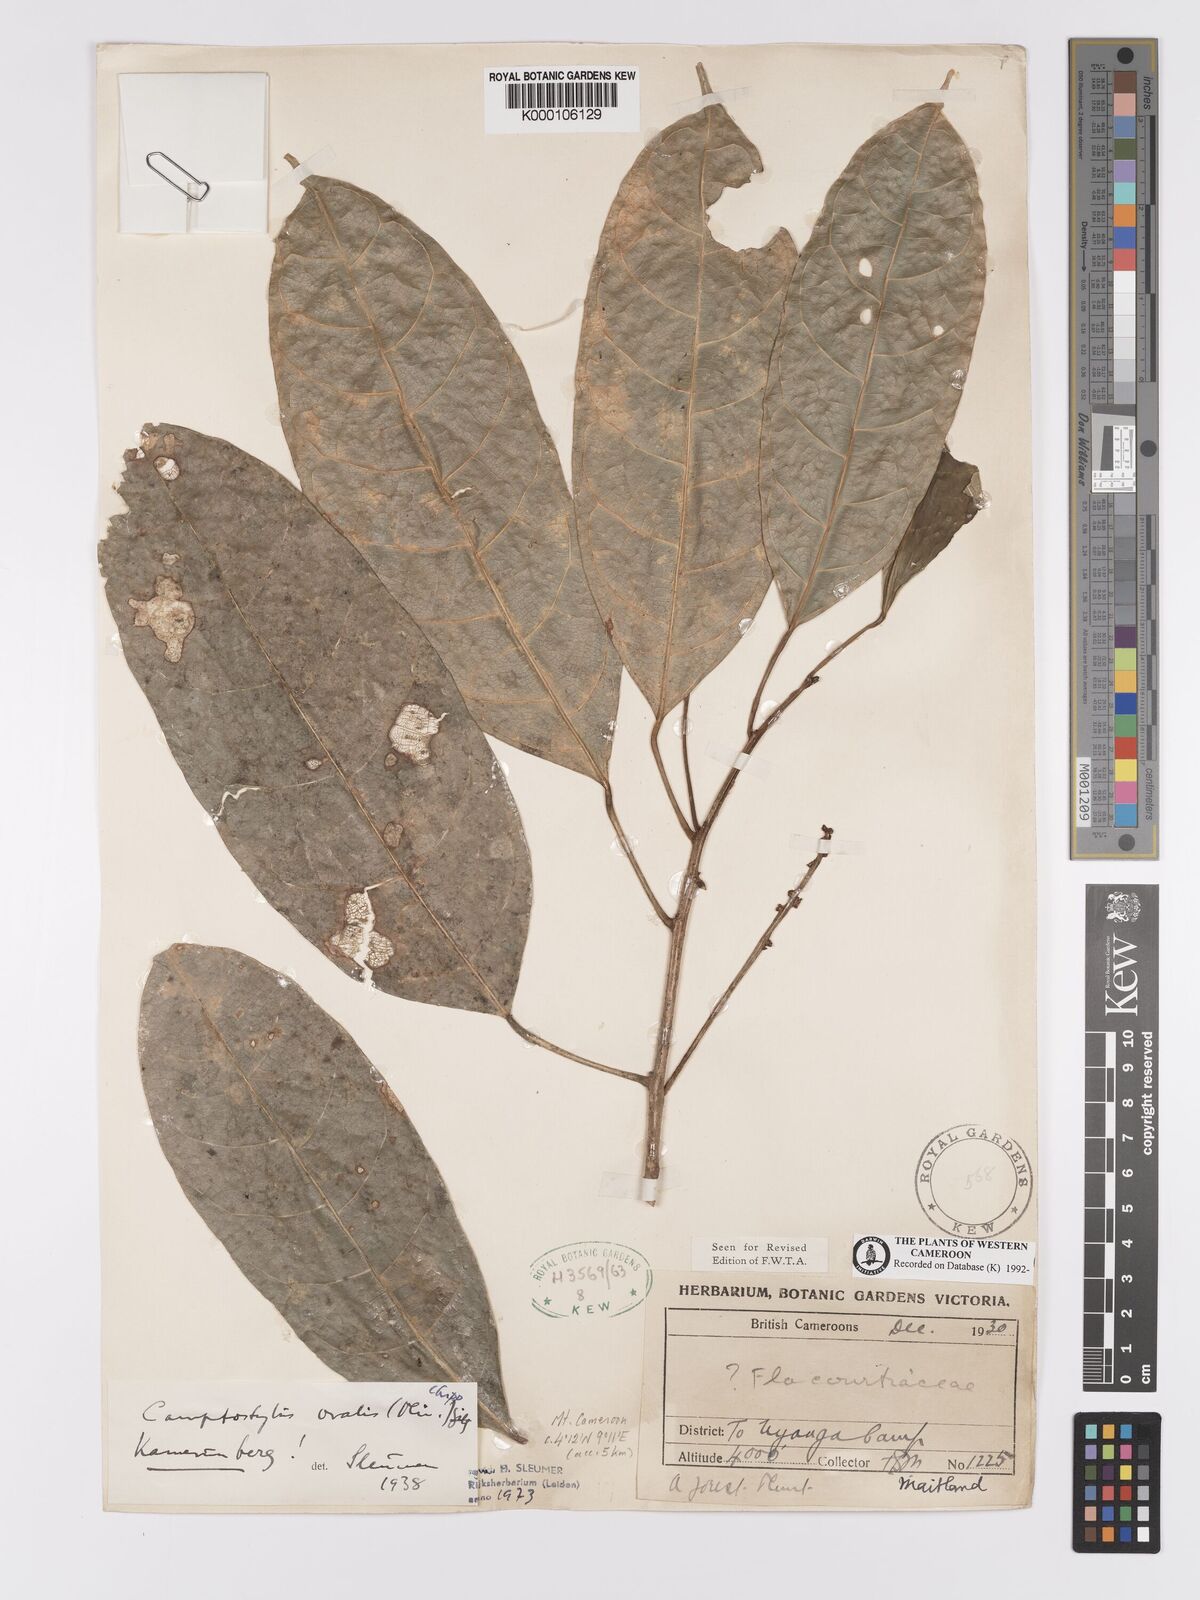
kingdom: Plantae
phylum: Tracheophyta
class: Magnoliopsida
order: Malpighiales
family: Achariaceae
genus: Camptostylus
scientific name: Camptostylus ovalis
